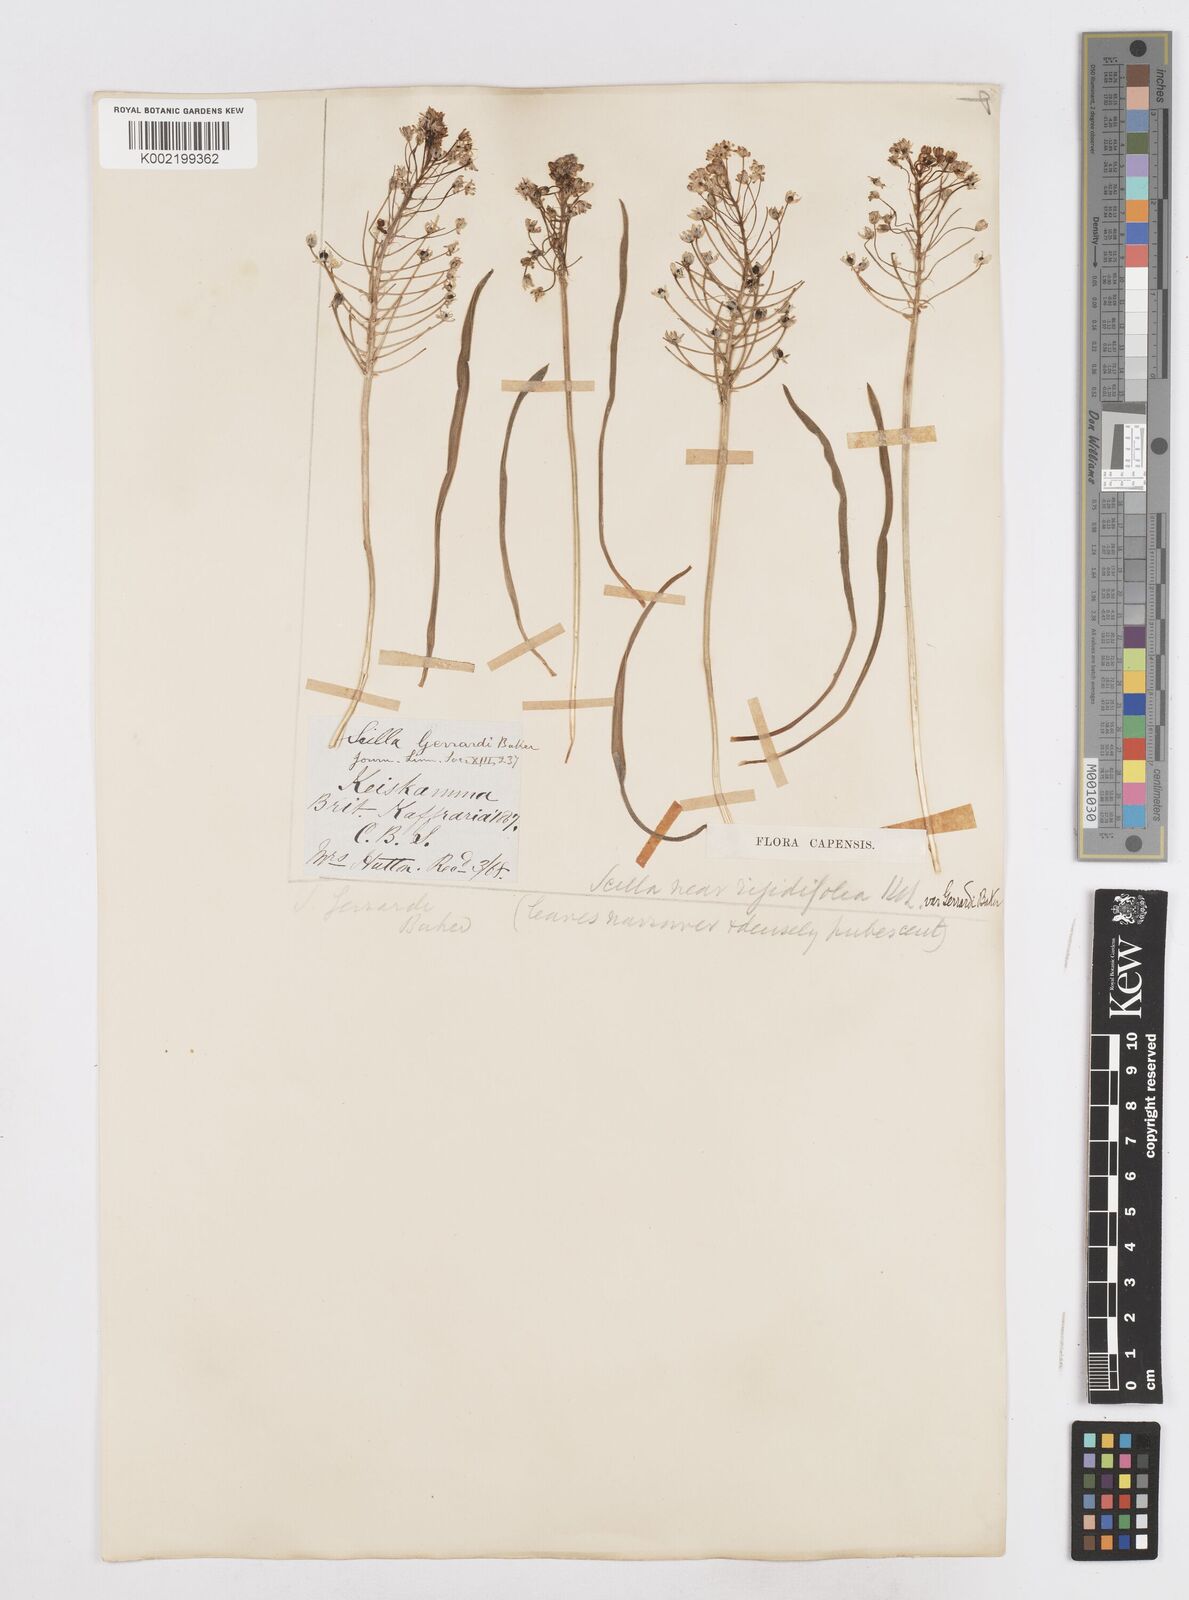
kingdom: Plantae
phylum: Tracheophyta
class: Liliopsida
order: Asparagales
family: Asparagaceae
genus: Schizocarphus
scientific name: Schizocarphus nervosus
